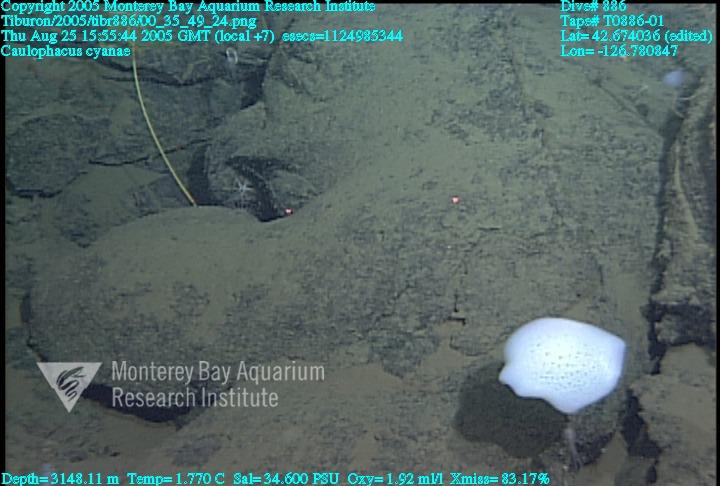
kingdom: Animalia
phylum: Porifera
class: Hexactinellida
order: Lyssacinosida
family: Rossellidae
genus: Caulophacus
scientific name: Caulophacus cyanae
